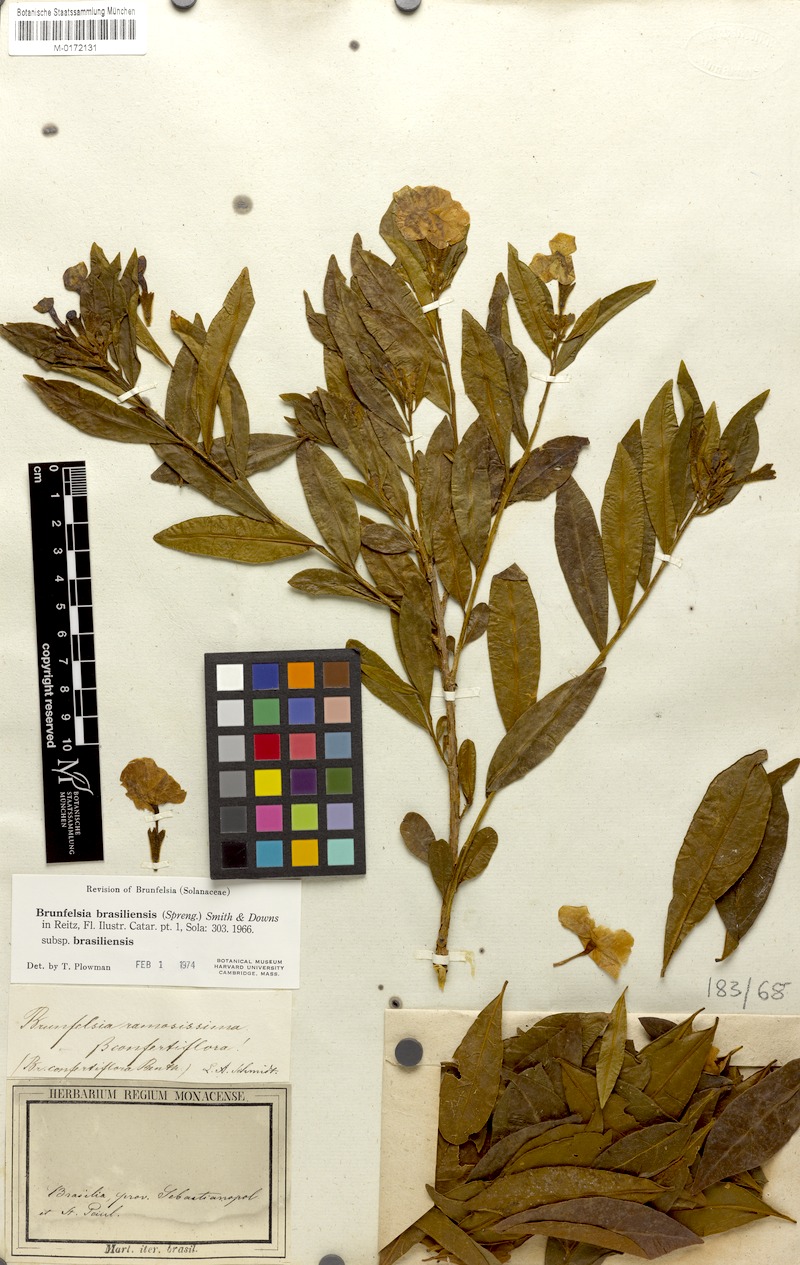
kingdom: Plantae
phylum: Tracheophyta
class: Magnoliopsida
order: Solanales
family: Solanaceae
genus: Brunfelsia
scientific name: Brunfelsia brasiliensis
